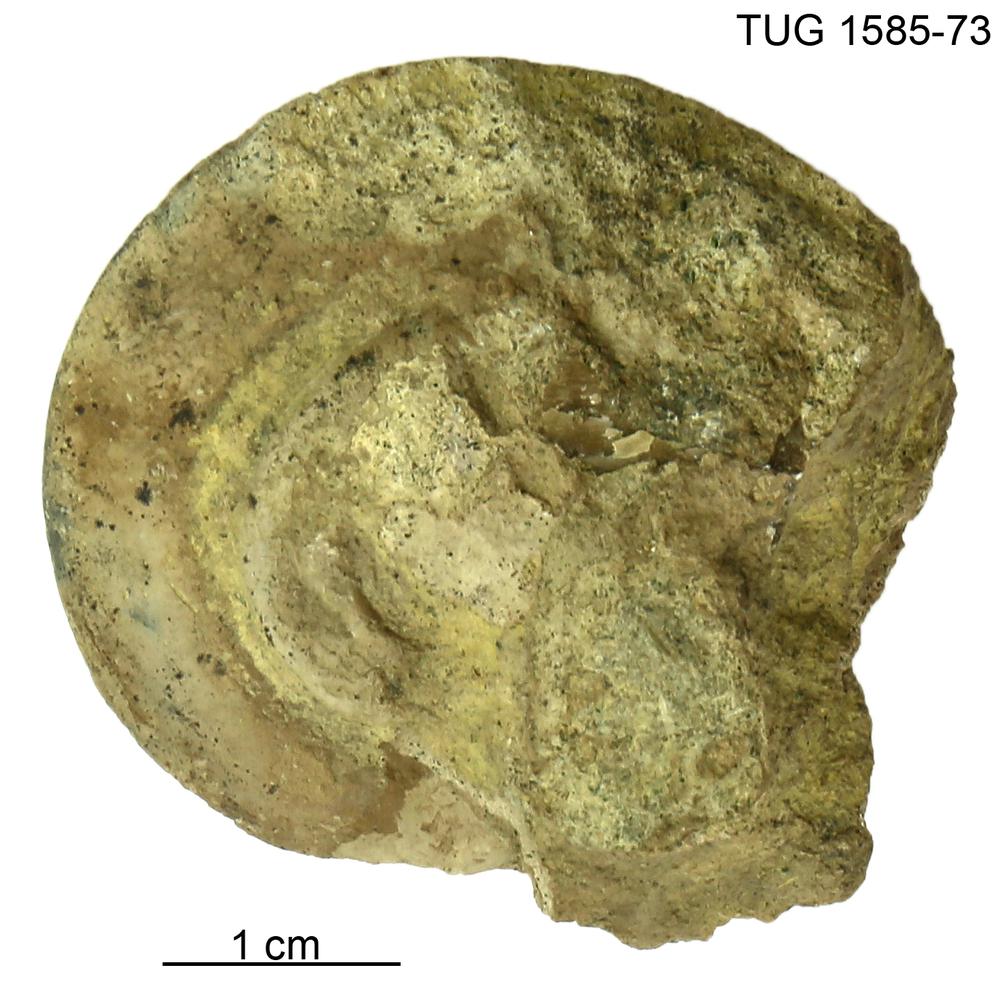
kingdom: Animalia
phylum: Mollusca
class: Gastropoda
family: Lesueurillidae
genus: Pararaphistoma
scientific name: Pararaphistoma Helicites qualteriata
